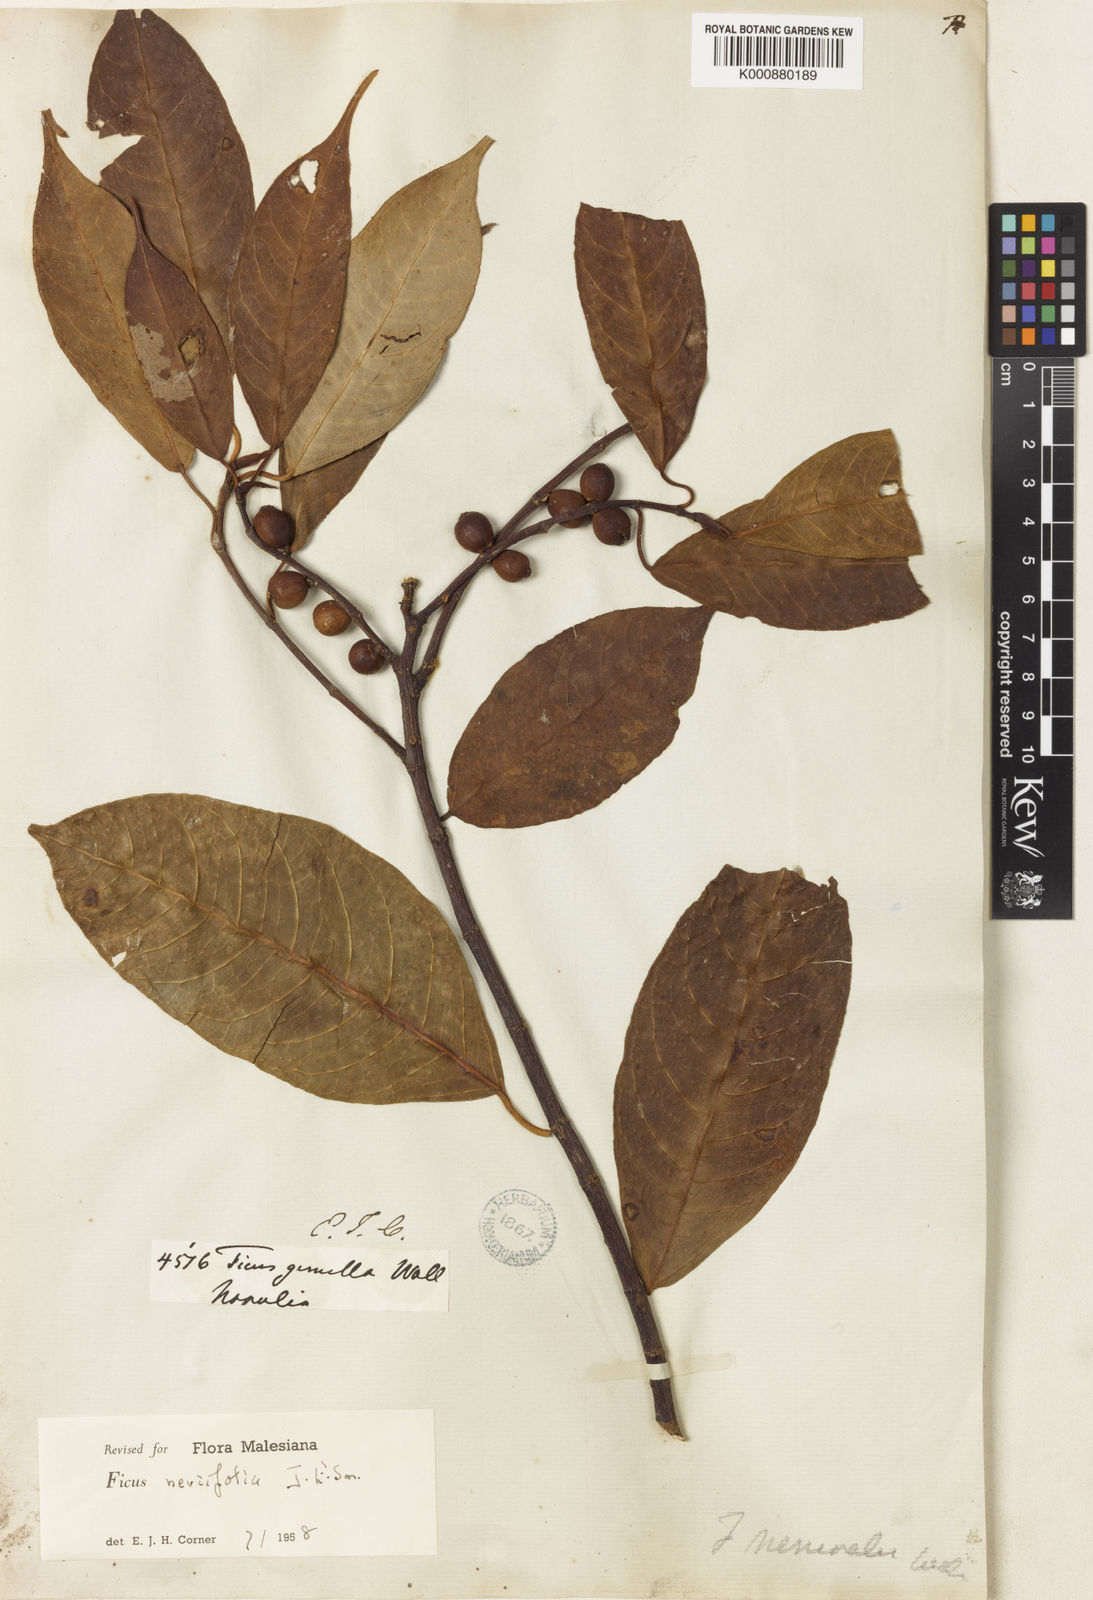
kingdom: Plantae
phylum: Tracheophyta
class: Magnoliopsida
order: Rosales
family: Moraceae
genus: Ficus
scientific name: Ficus neriifolia
